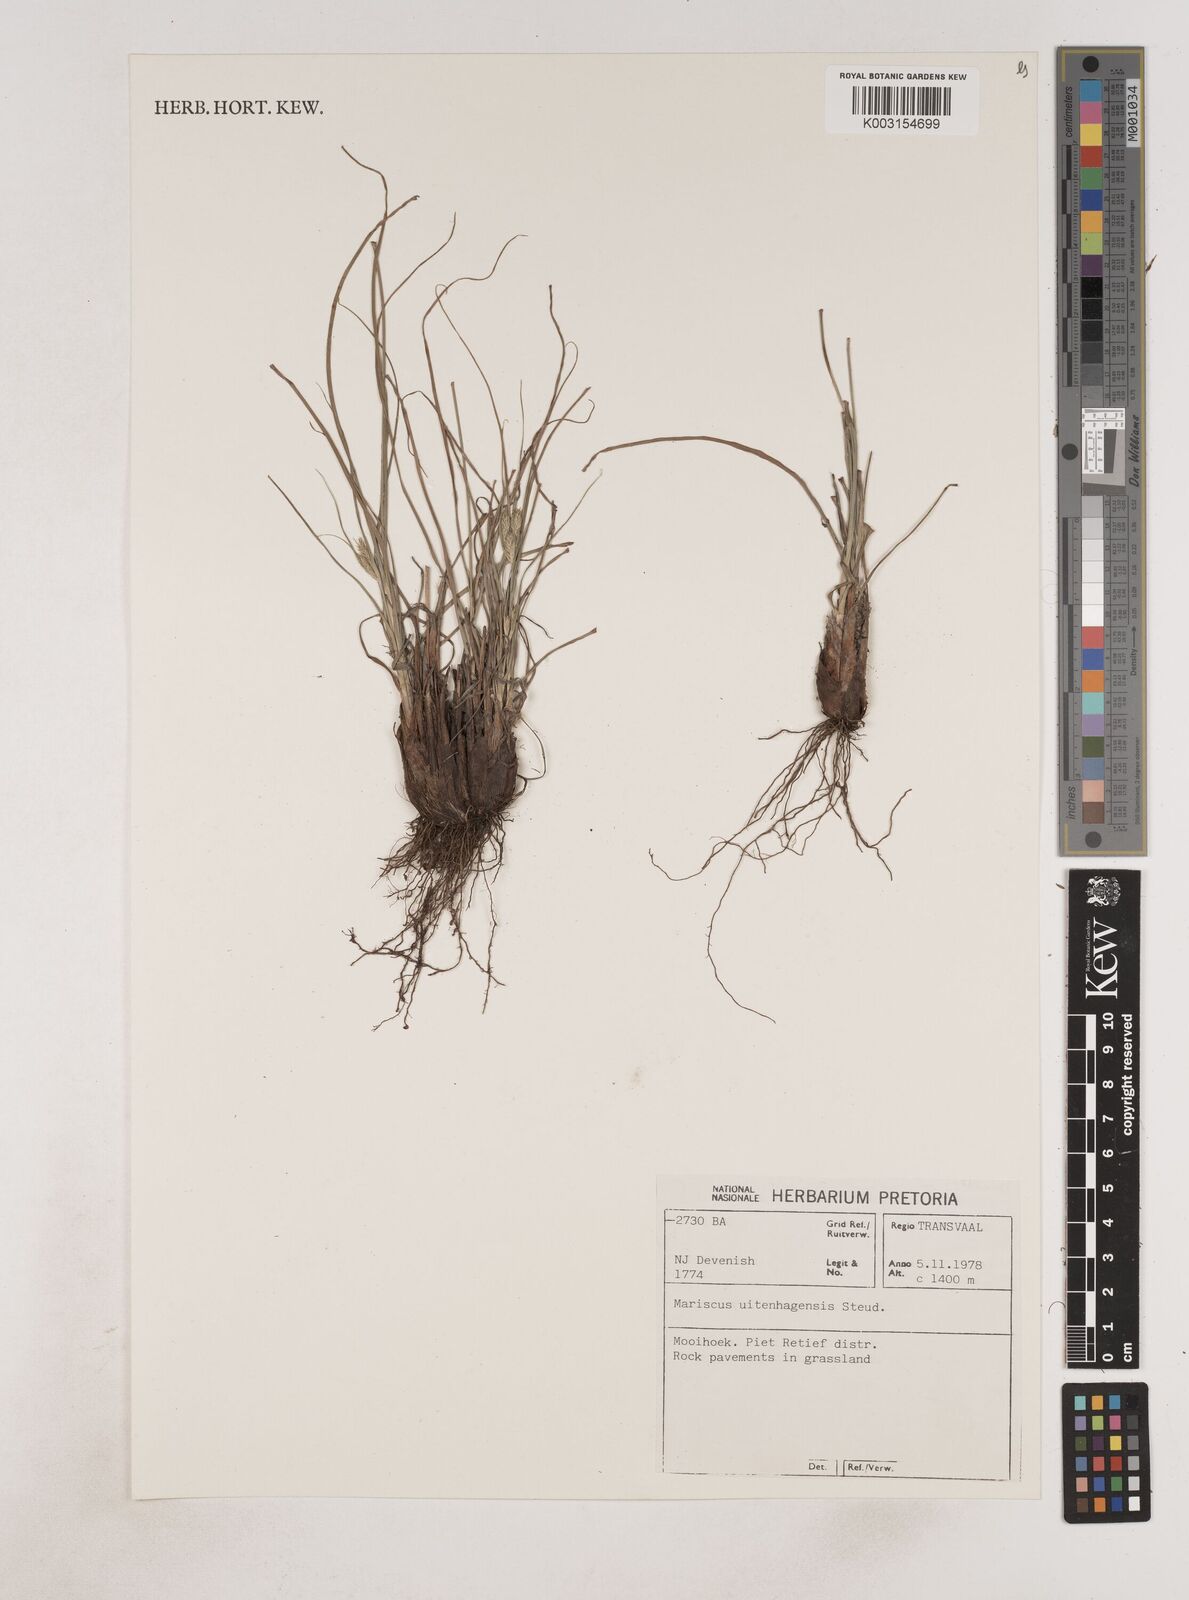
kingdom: Plantae
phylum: Tracheophyta
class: Liliopsida
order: Poales
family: Cyperaceae
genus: Cyperus
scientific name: Cyperus
